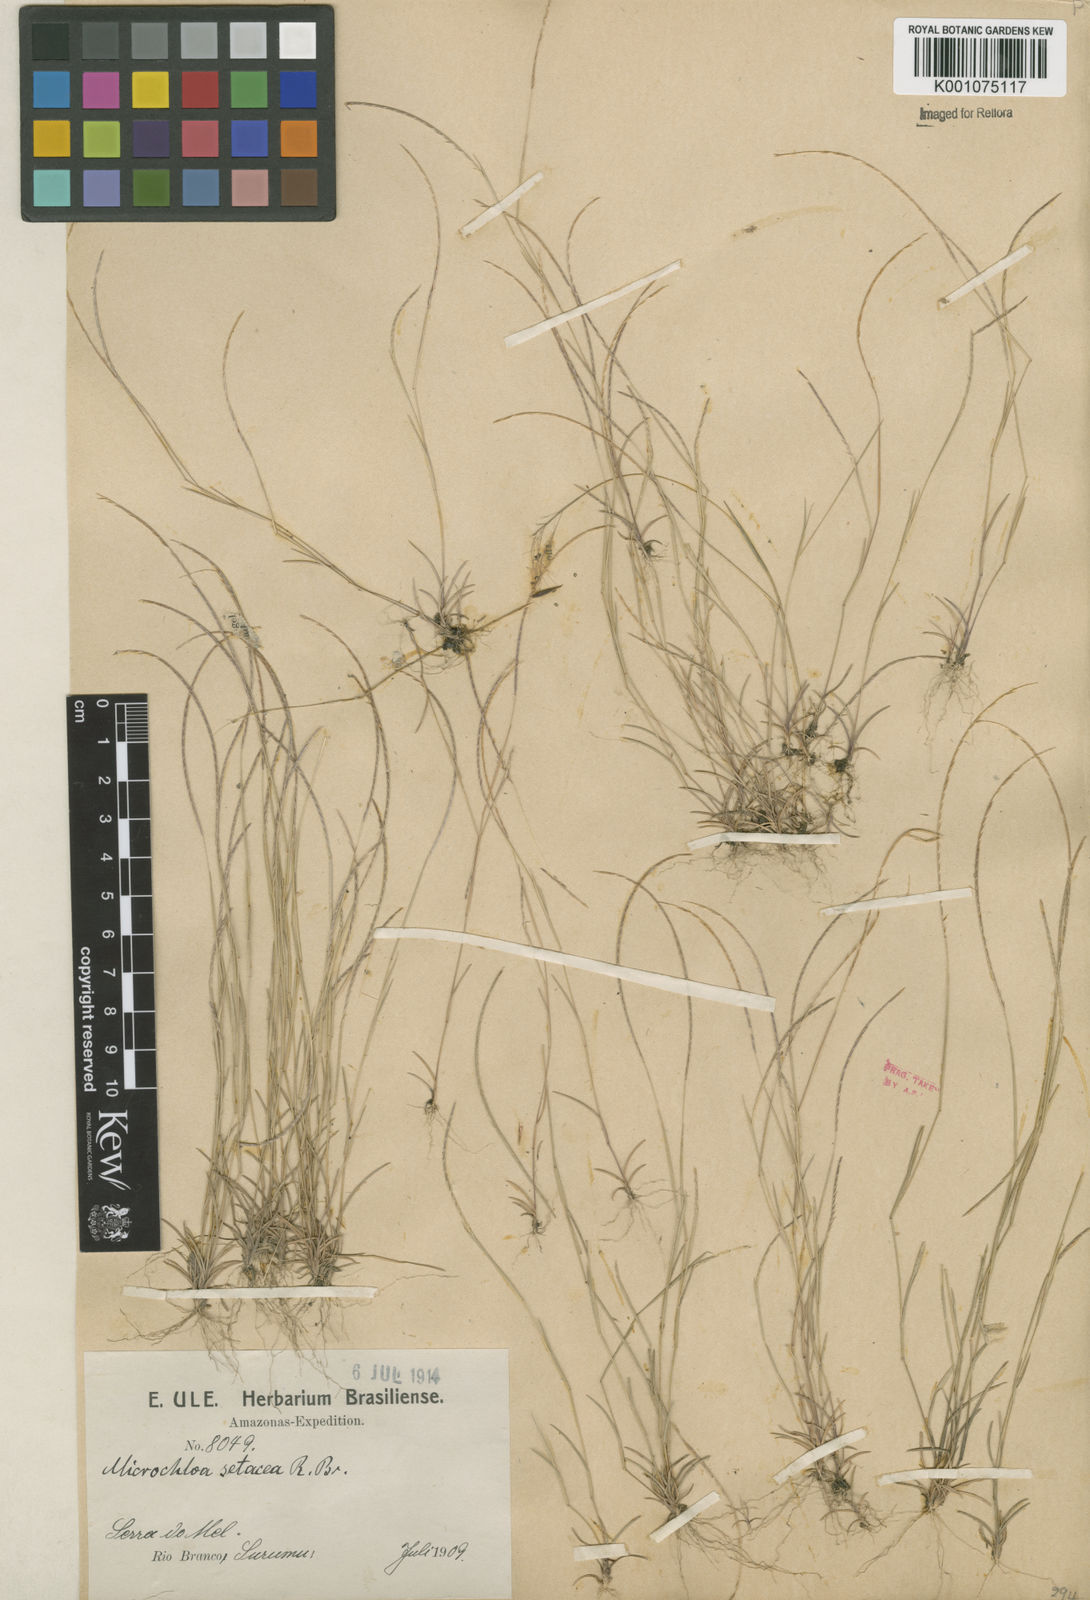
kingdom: Plantae
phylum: Tracheophyta
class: Liliopsida
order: Poales
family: Poaceae
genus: Microchloa
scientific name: Microchloa indica
